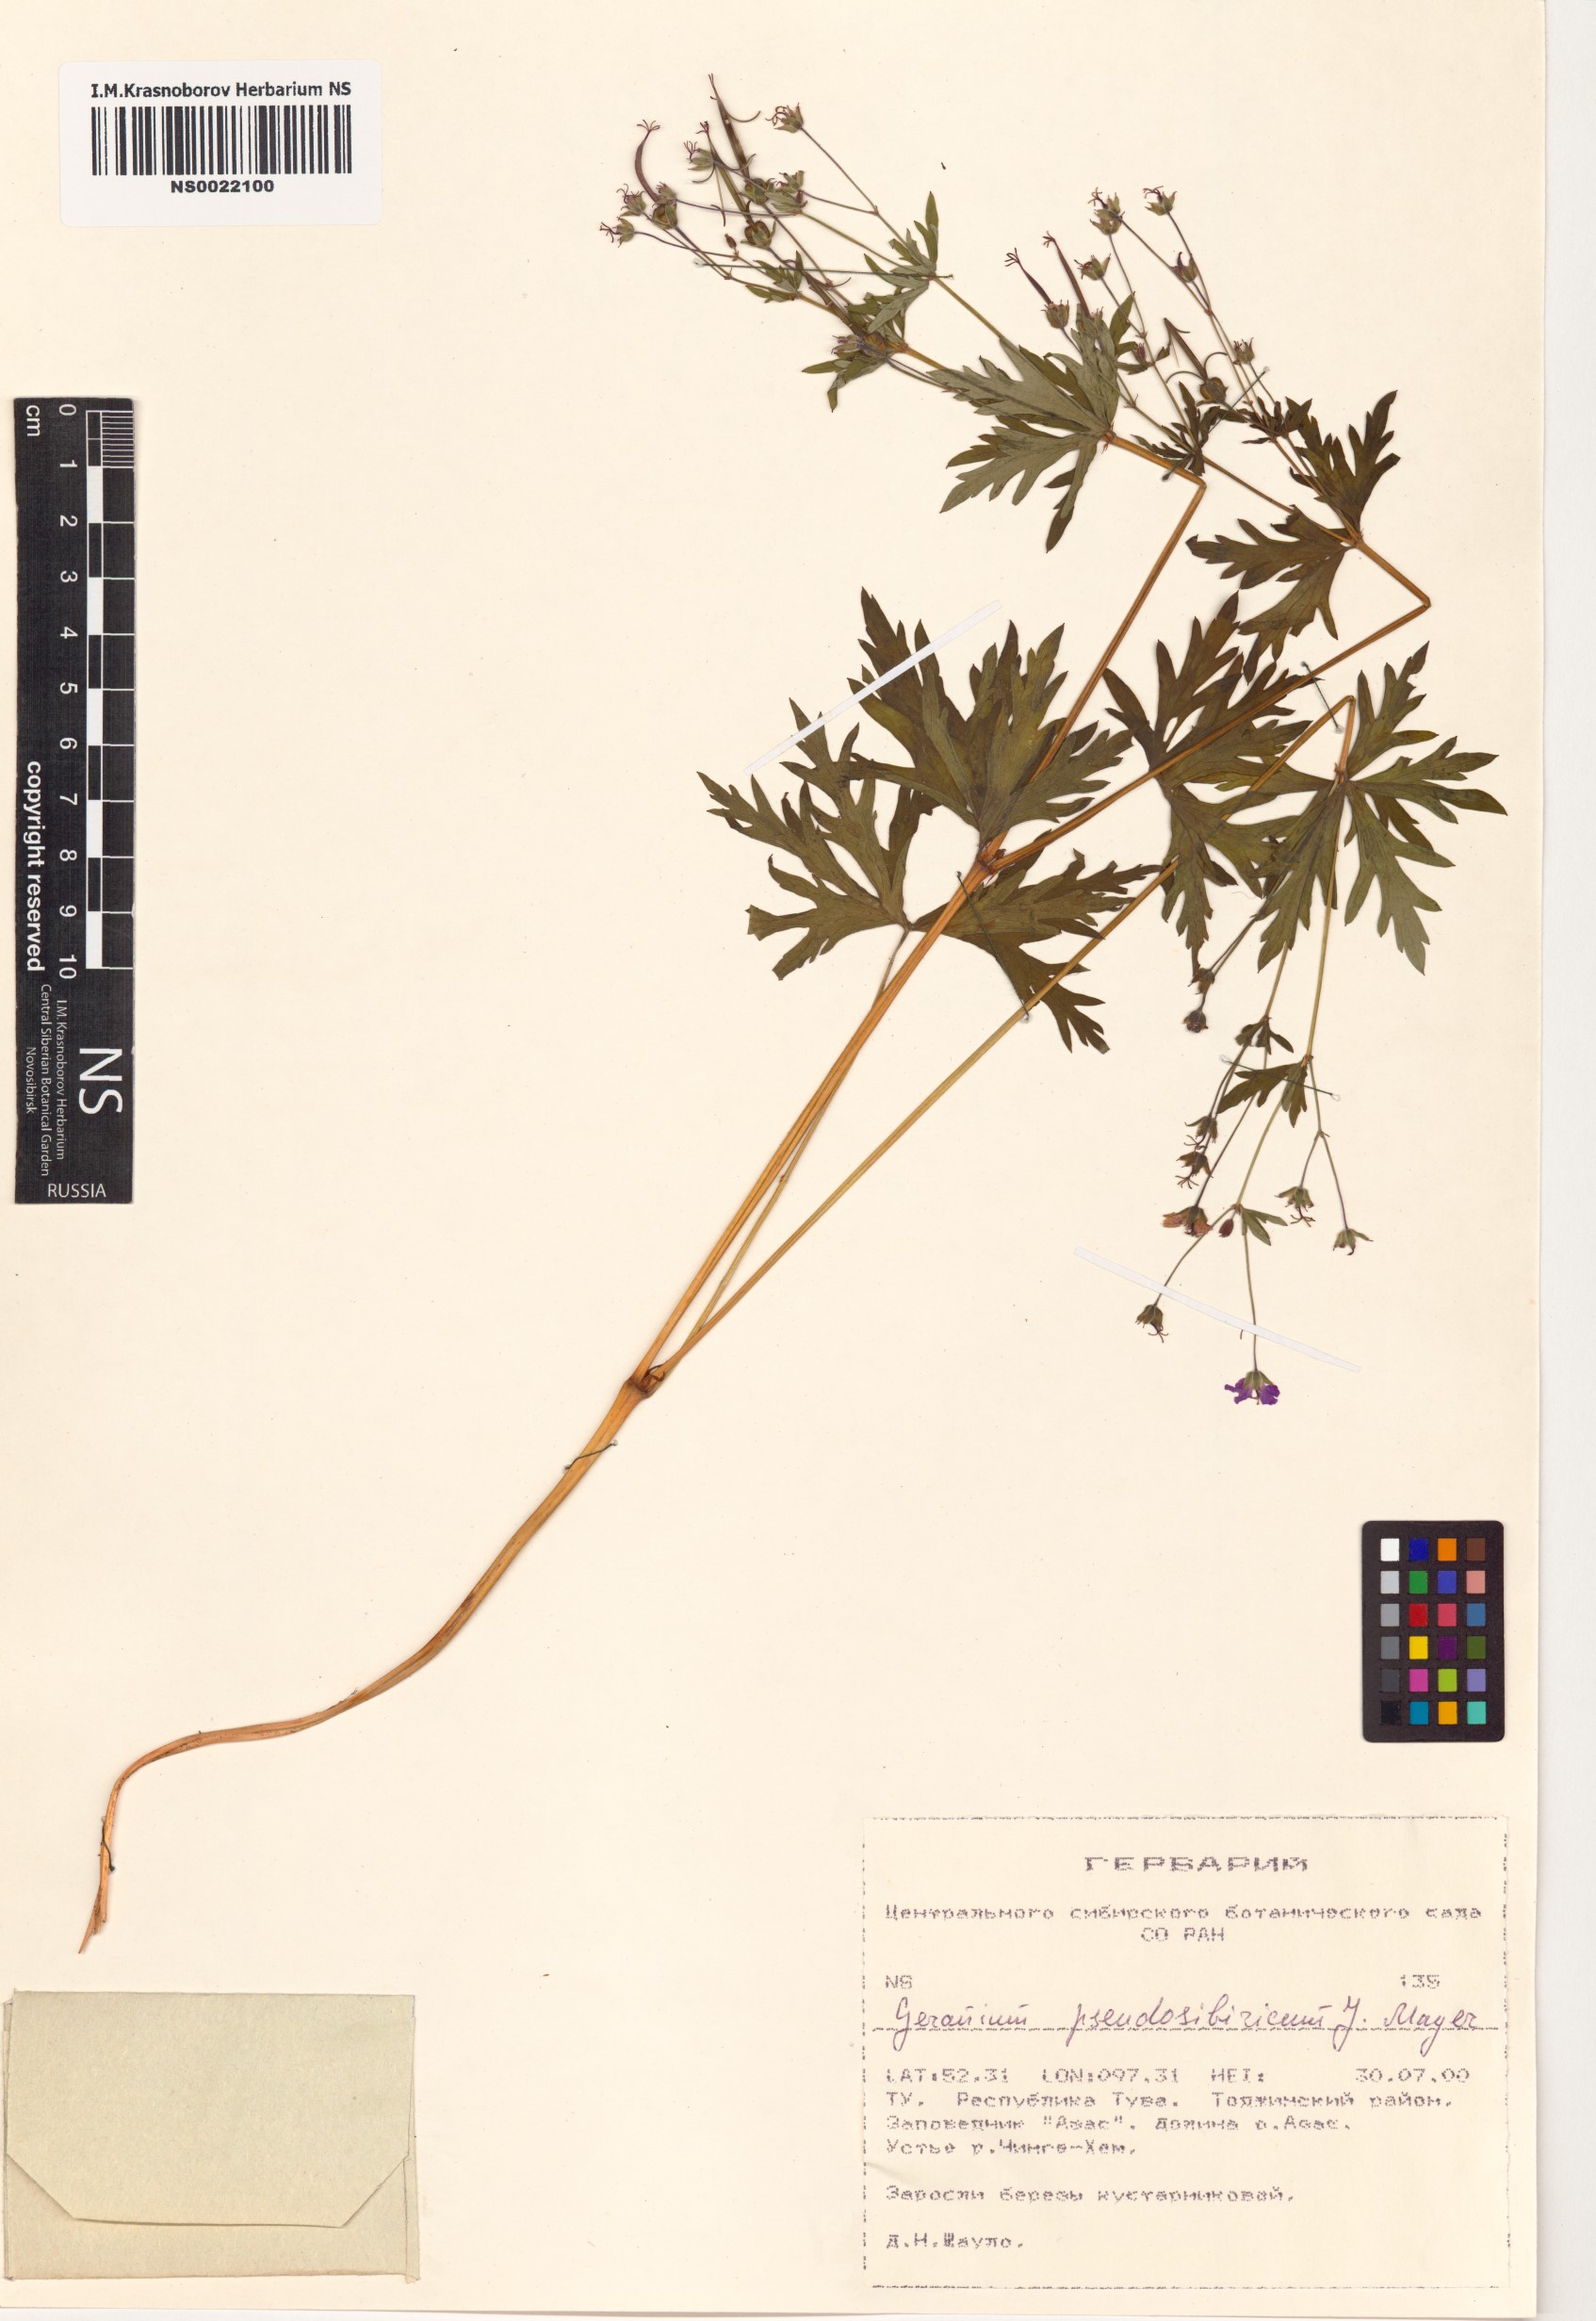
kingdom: Plantae
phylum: Tracheophyta
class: Magnoliopsida
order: Geraniales
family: Geraniaceae
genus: Geranium
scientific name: Geranium pseudosibiricum
